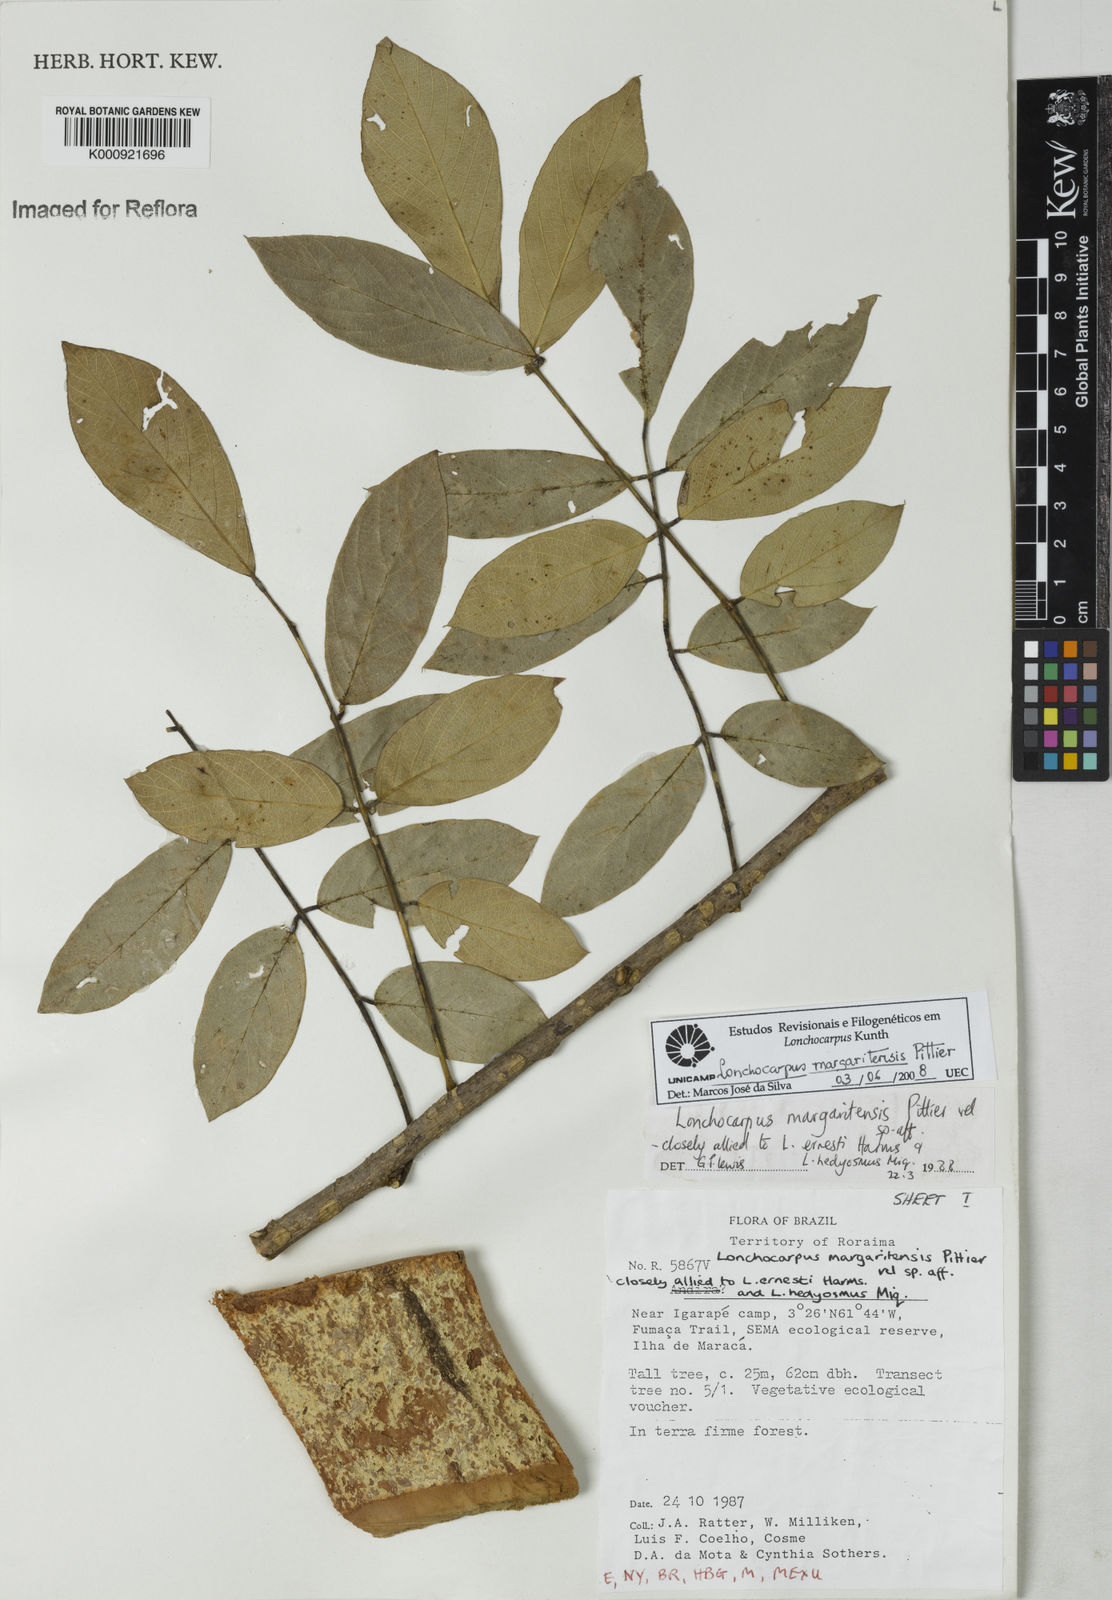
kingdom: Plantae
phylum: Tracheophyta
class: Magnoliopsida
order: Fabales
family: Fabaceae
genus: Lonchocarpus
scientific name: Lonchocarpus hedyosmus
